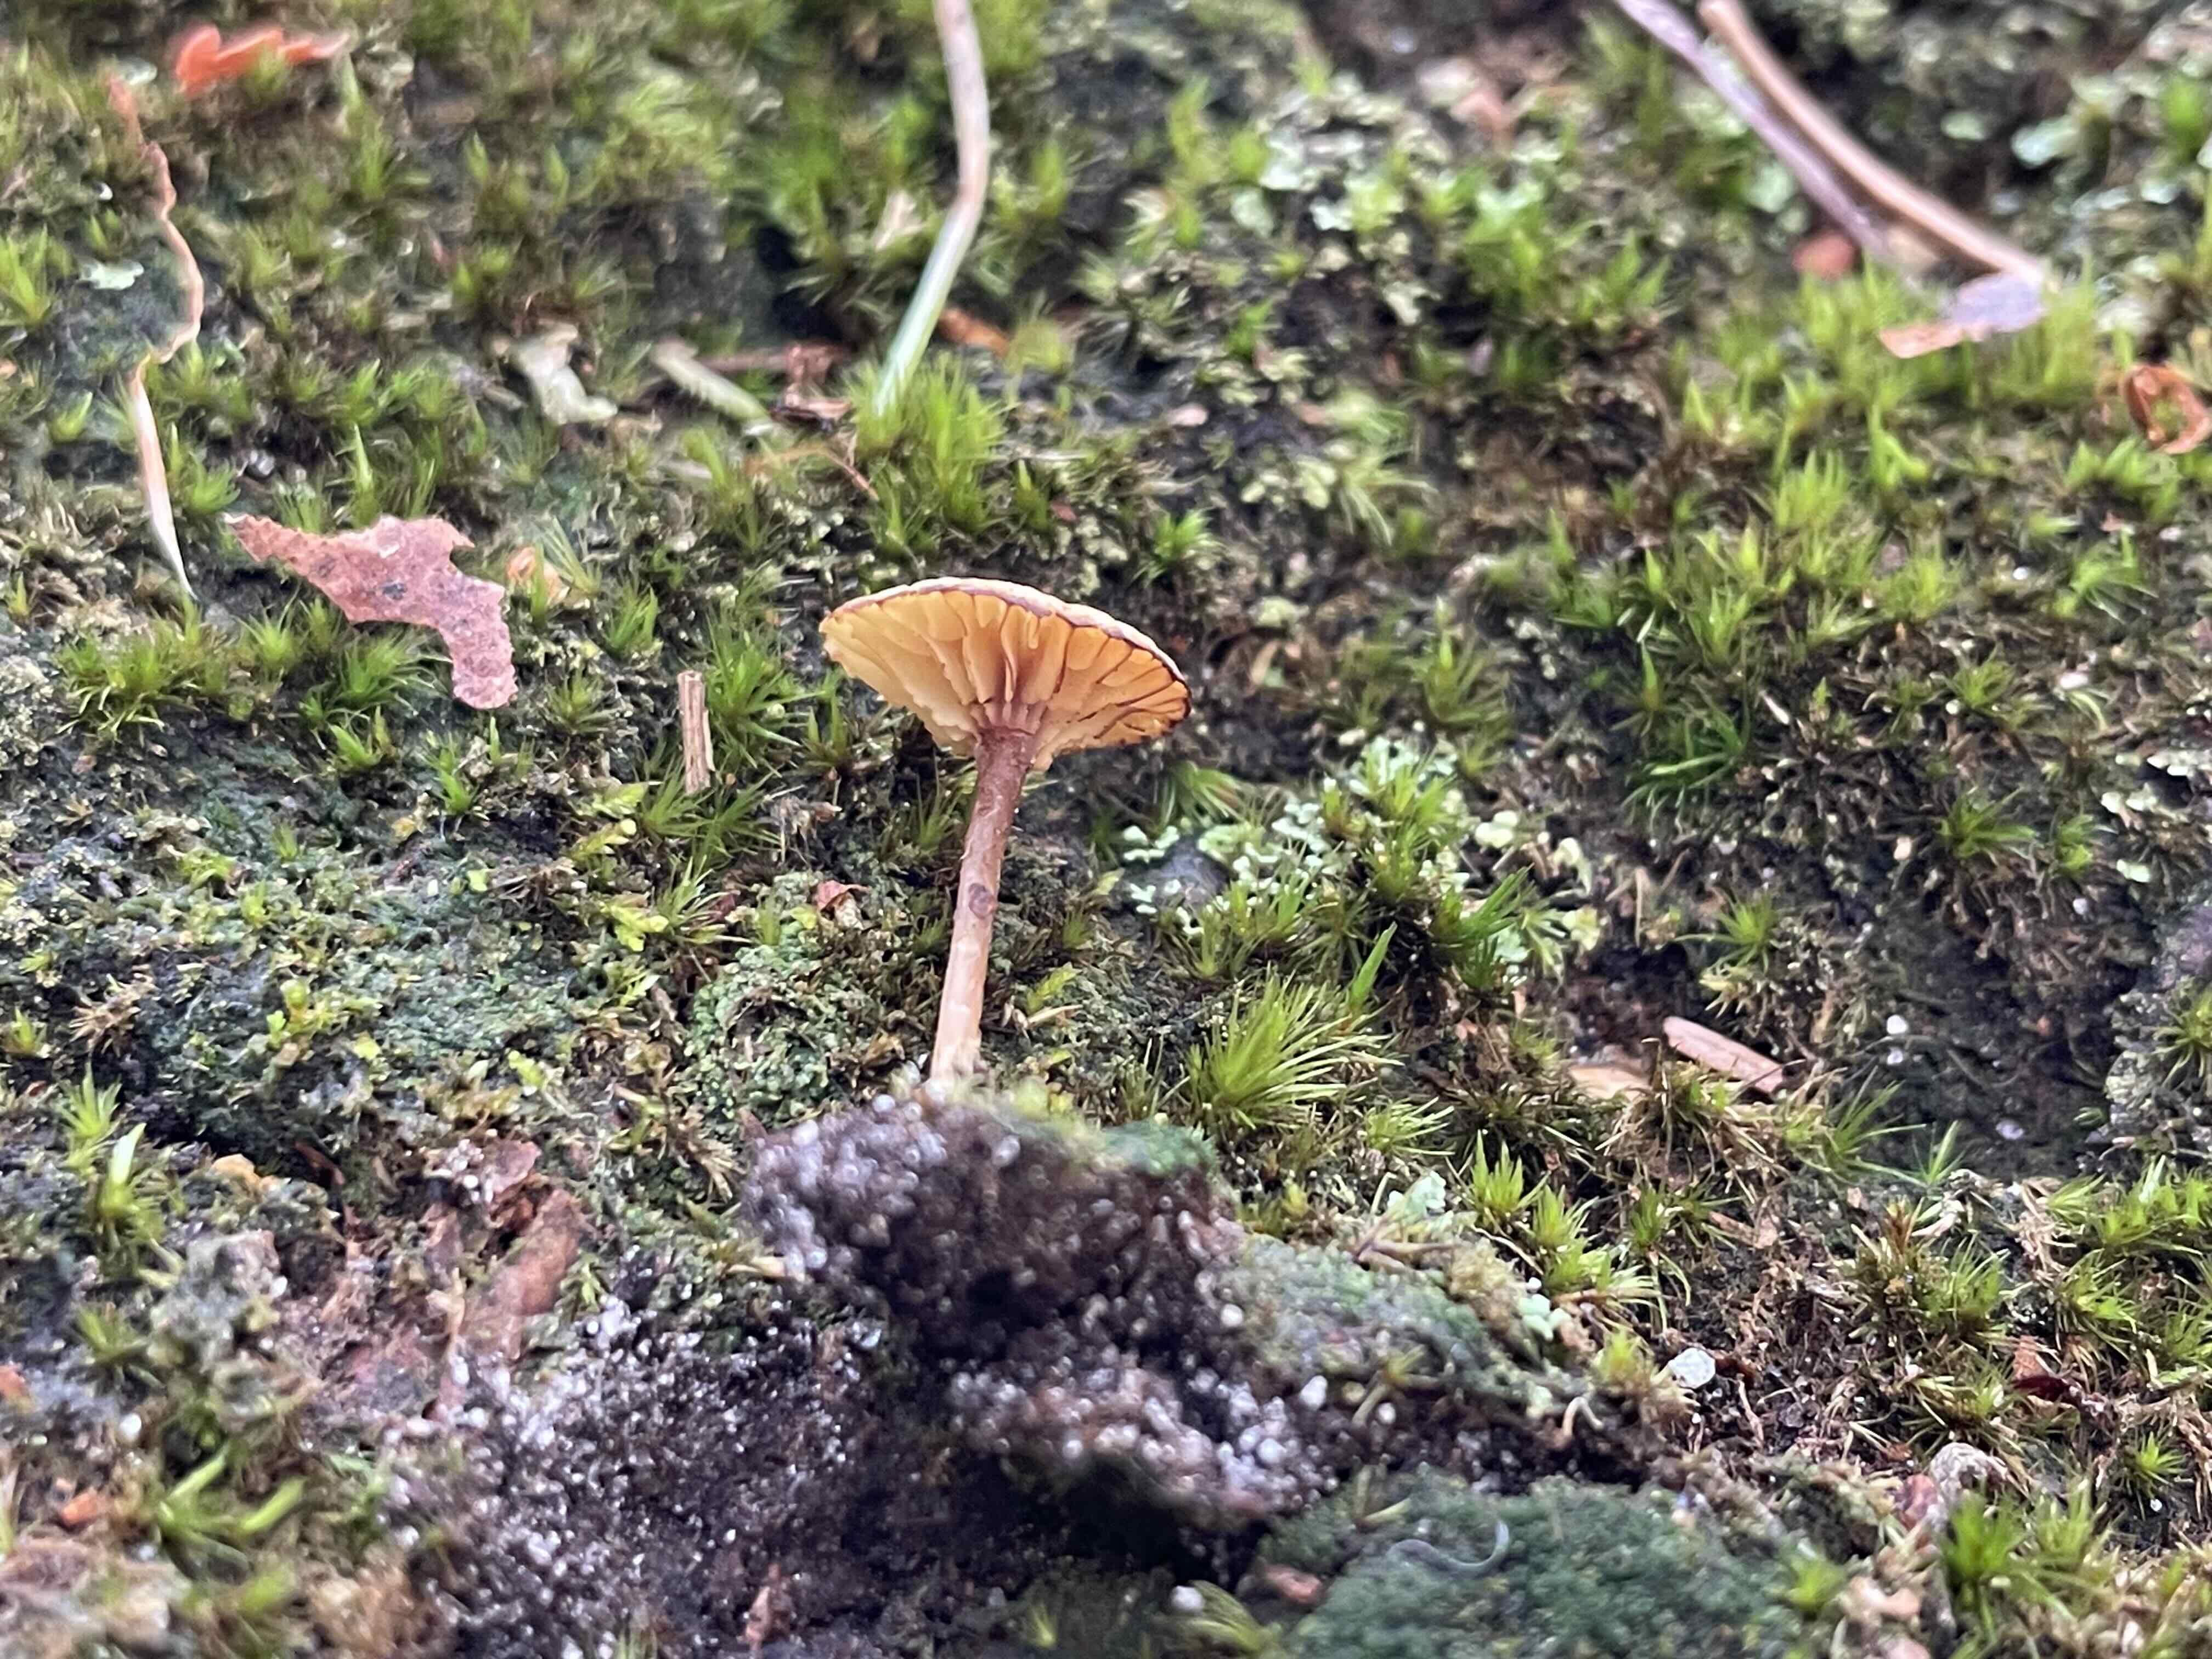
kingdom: Fungi
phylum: Basidiomycota
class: Agaricomycetes
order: Agaricales
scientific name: Agaricales
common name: champignonordenen
